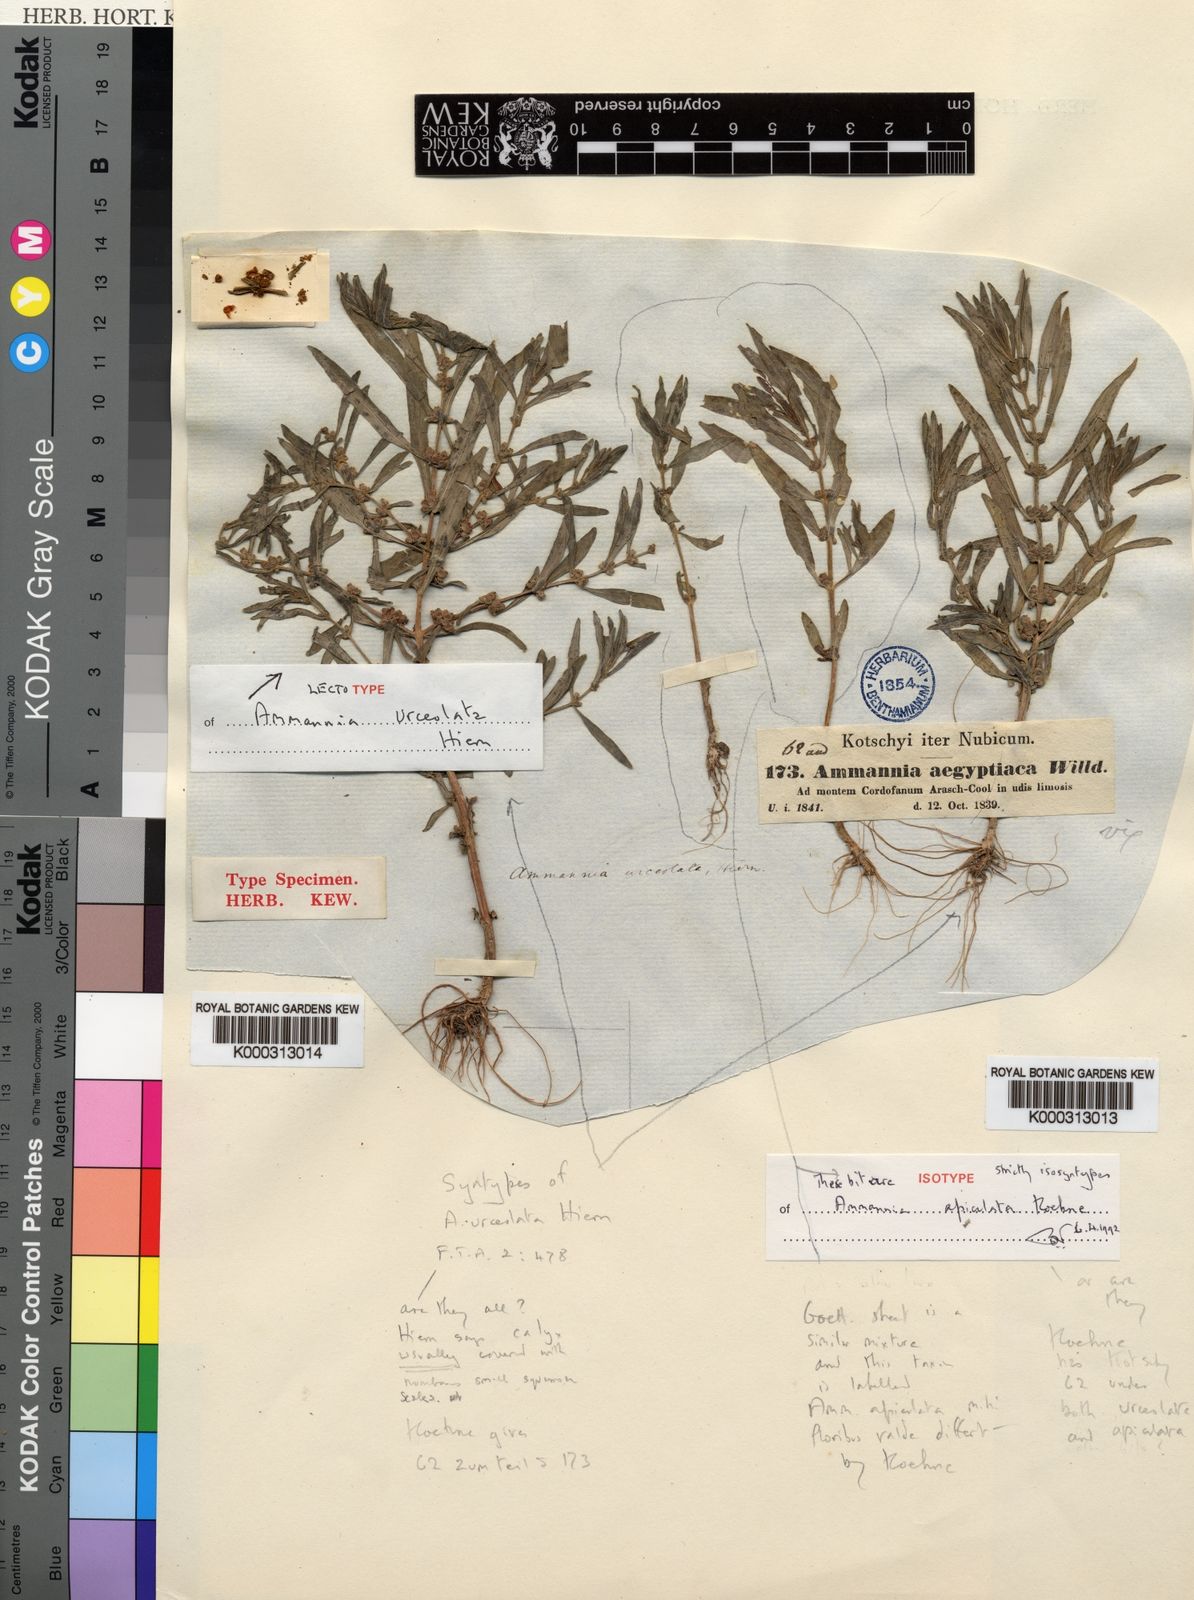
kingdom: Plantae
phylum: Tracheophyta
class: Magnoliopsida
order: Myrtales
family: Lythraceae
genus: Ammannia
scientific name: Ammannia urceolata
